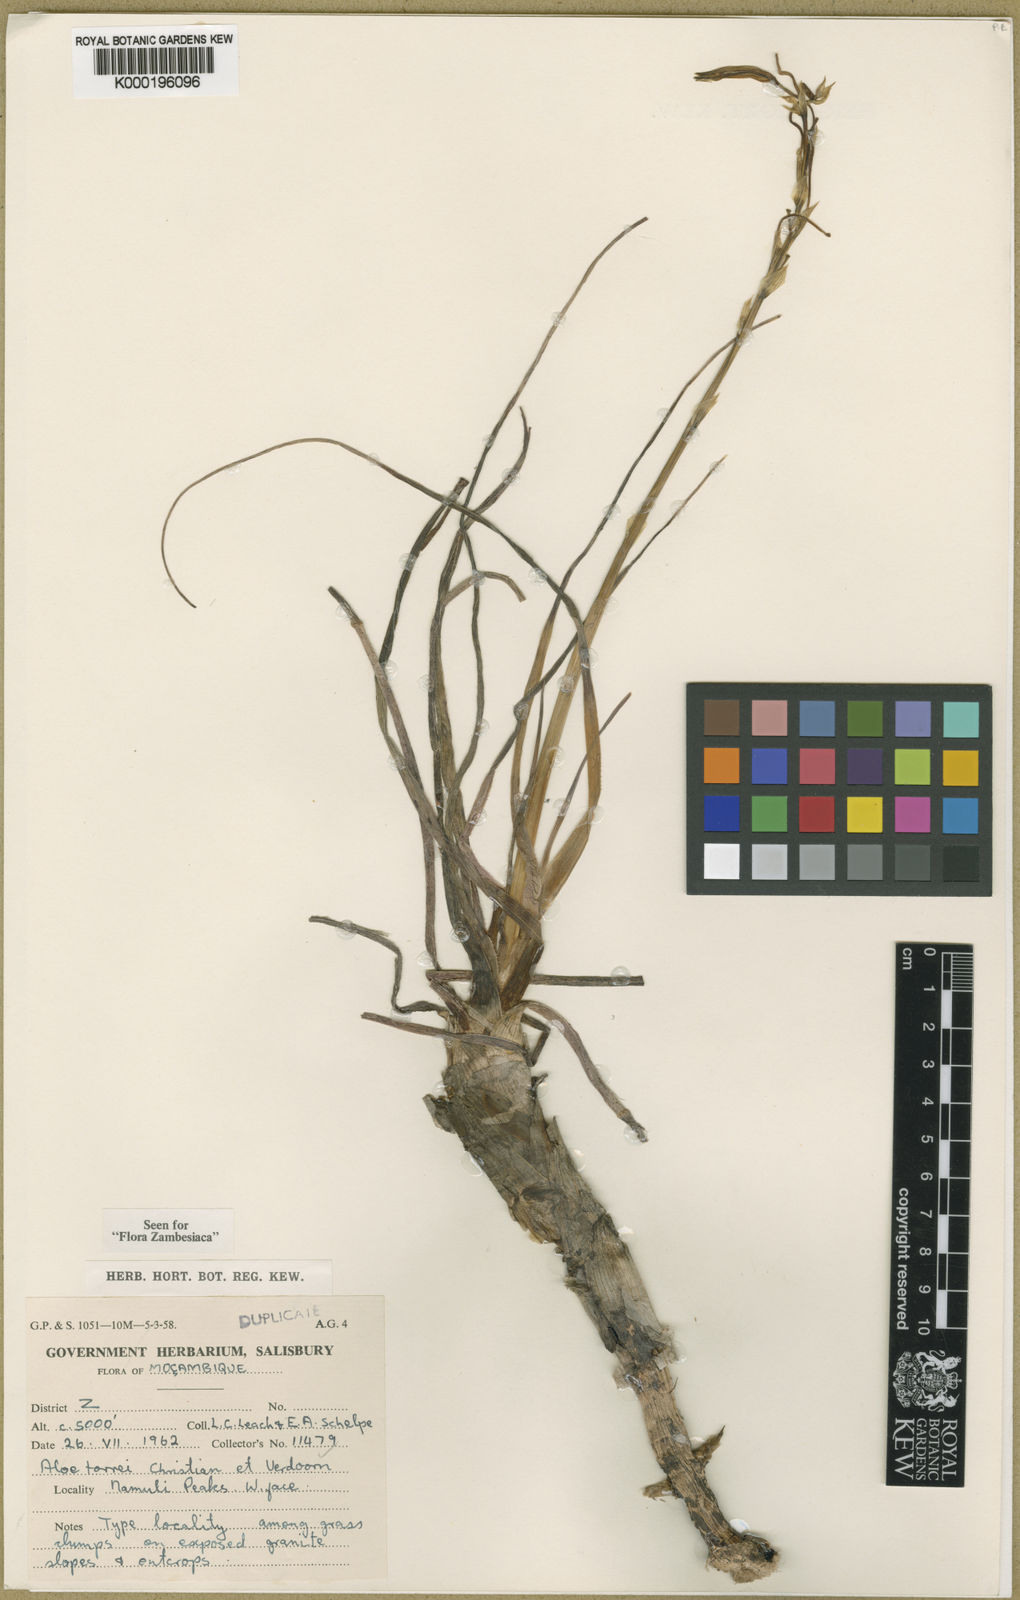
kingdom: Plantae
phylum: Tracheophyta
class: Liliopsida
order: Asparagales
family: Asphodelaceae
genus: Aloe
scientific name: Aloe torrei
